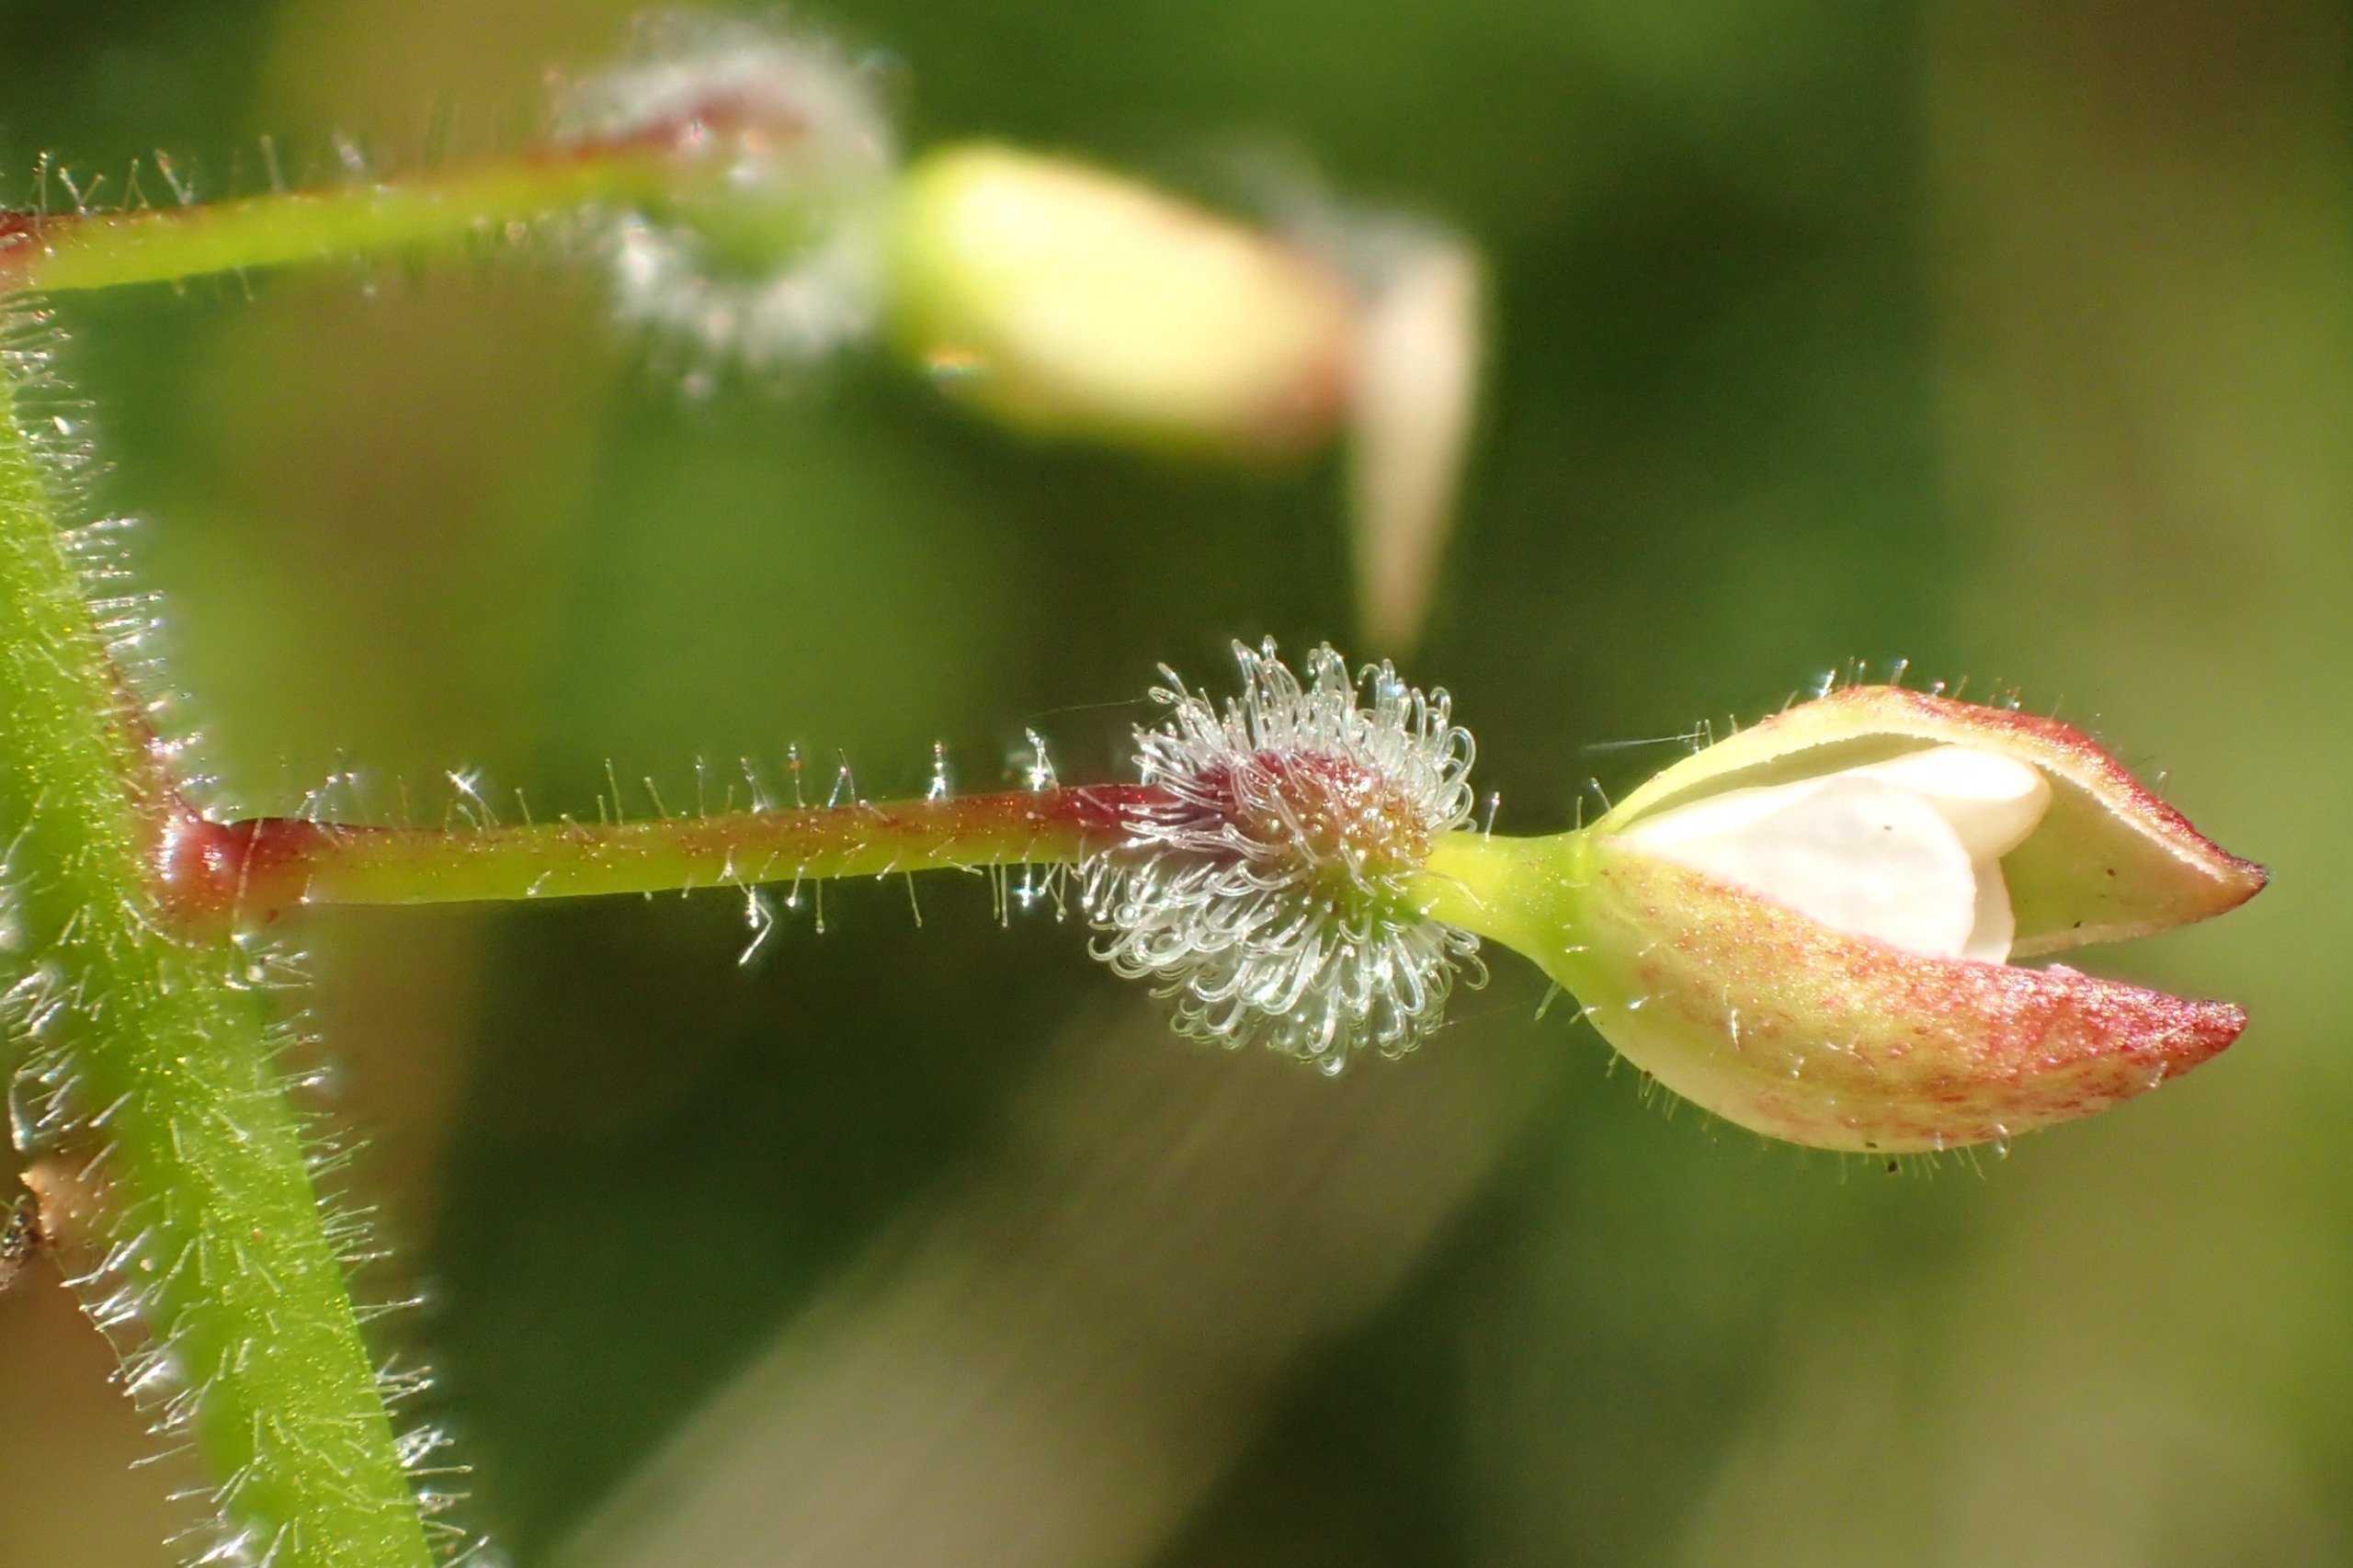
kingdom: Plantae
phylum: Tracheophyta
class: Magnoliopsida
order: Myrtales
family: Onagraceae
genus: Circaea
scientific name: Circaea lutetiana
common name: Dunet steffensurt
